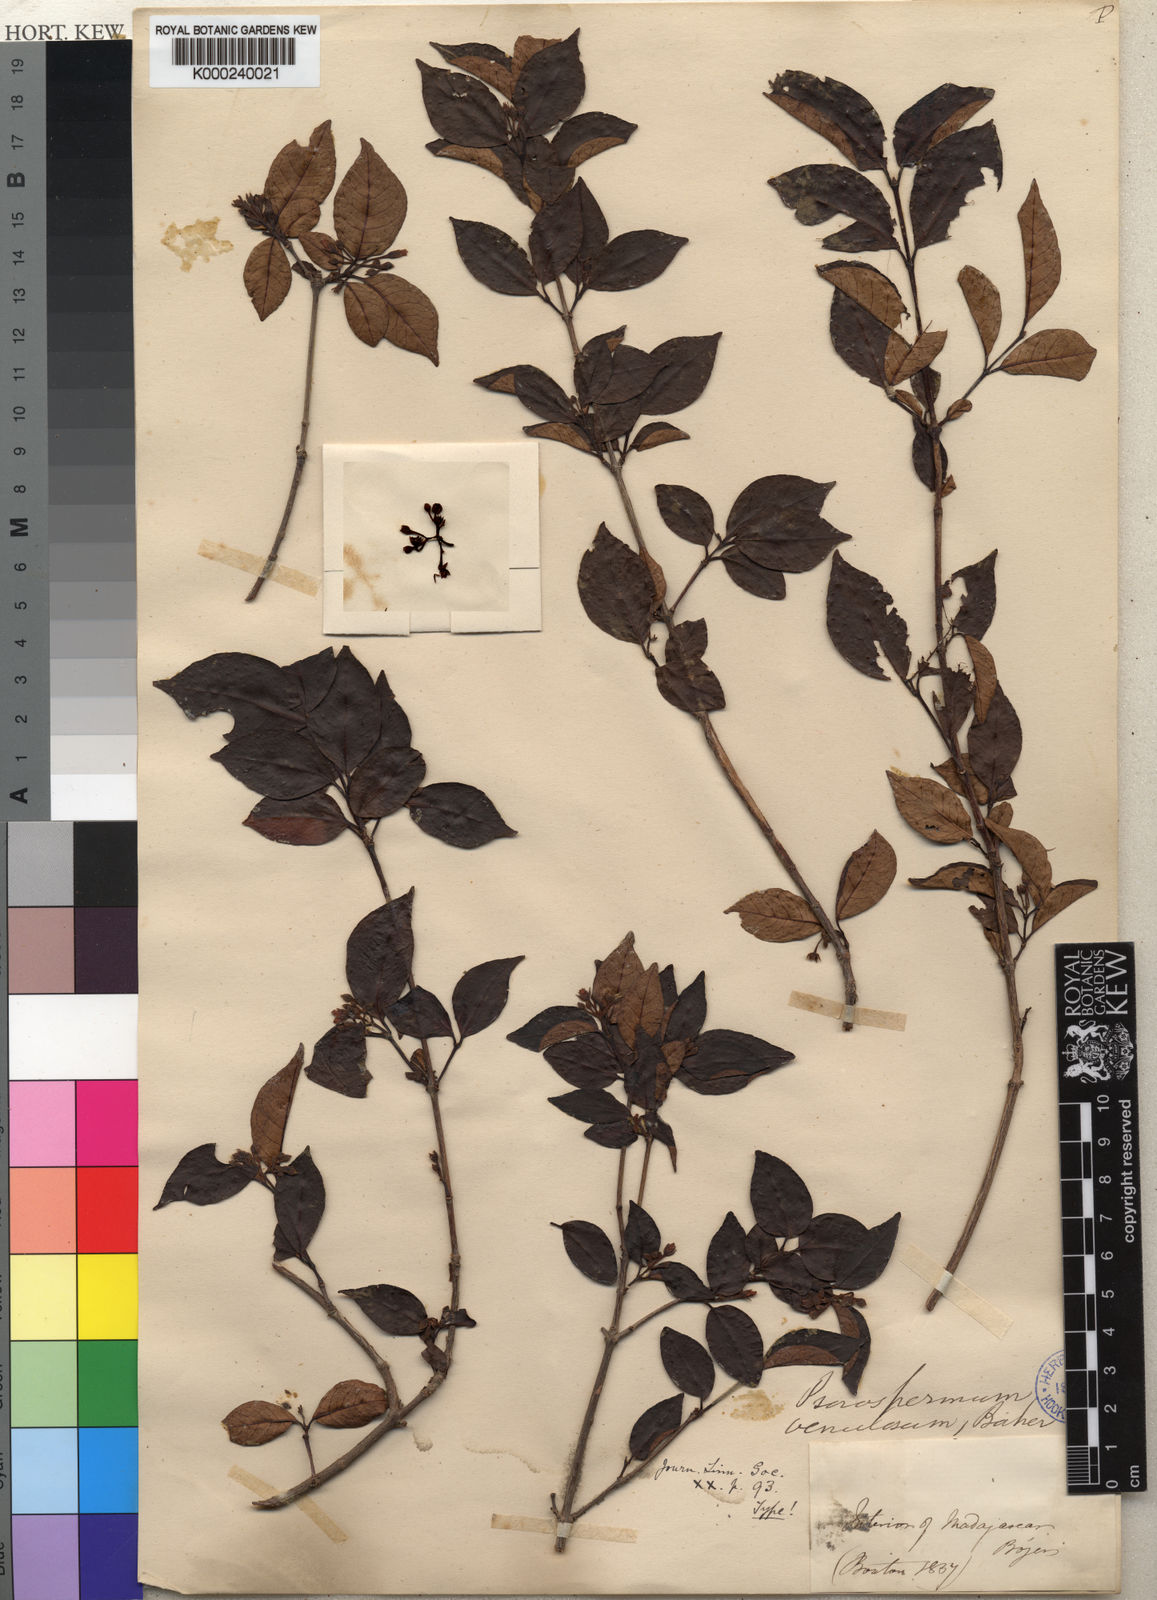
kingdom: Plantae
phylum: Tracheophyta
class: Magnoliopsida
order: Malpighiales
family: Hypericaceae
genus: Psorospermum
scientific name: Psorospermum molluscum
